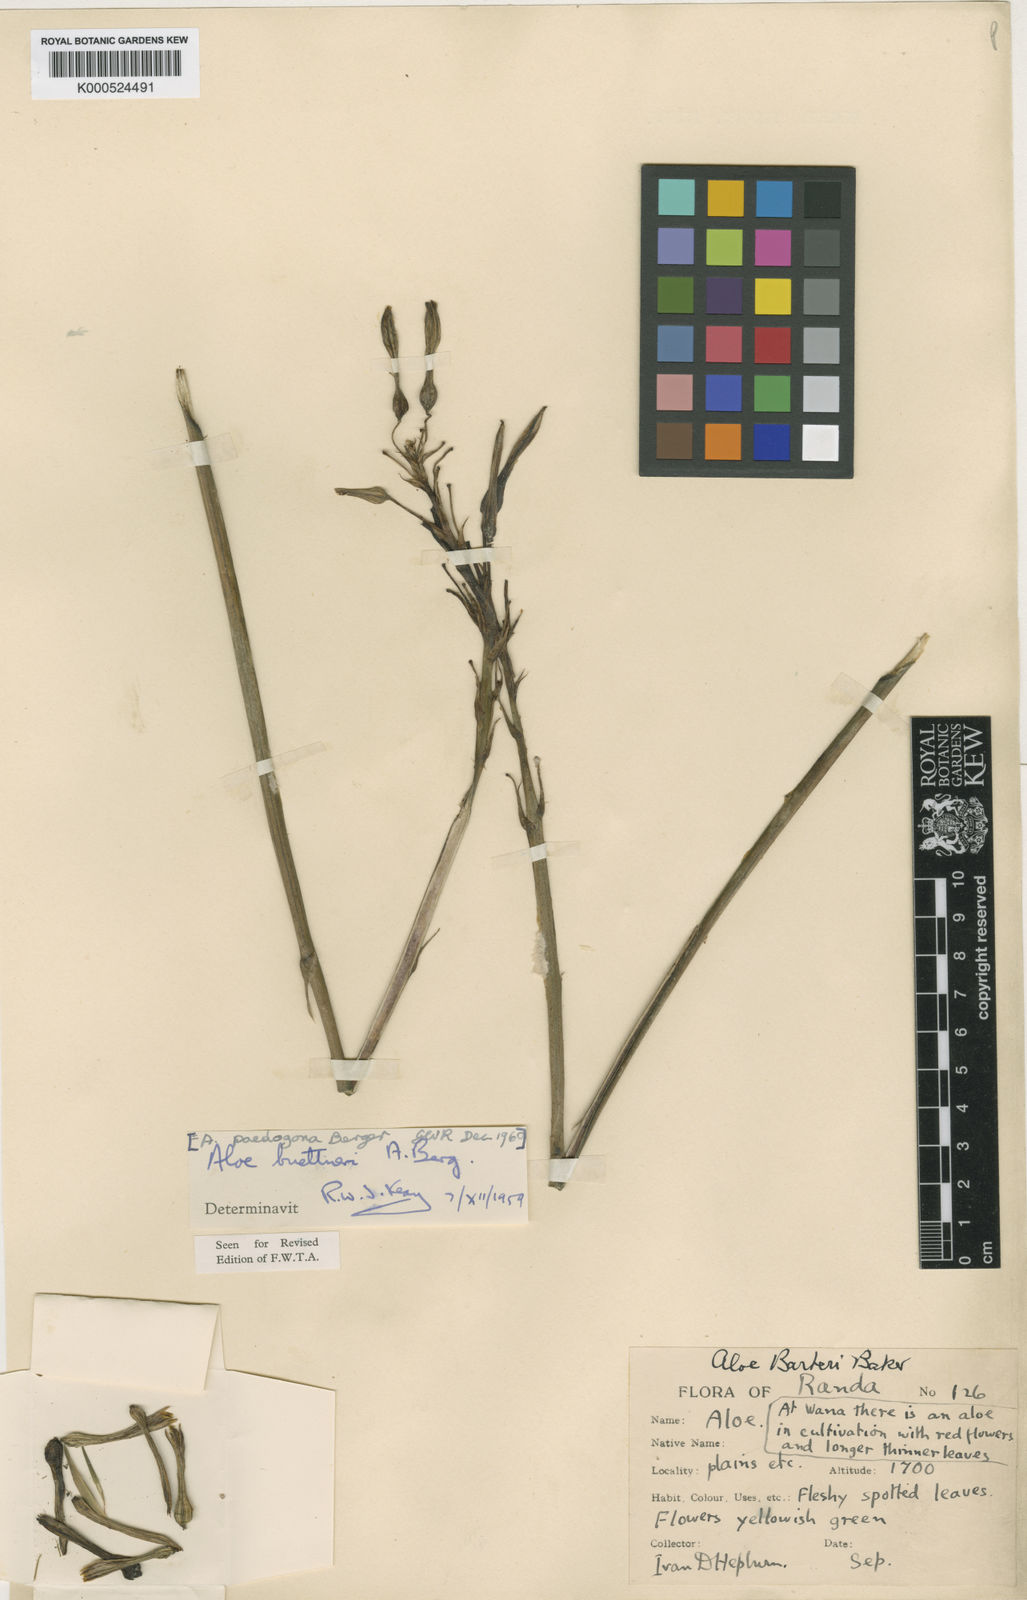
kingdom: Plantae
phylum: Tracheophyta
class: Liliopsida
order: Asparagales
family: Asphodelaceae
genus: Aloe
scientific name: Aloe buettneri
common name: West african aloe
